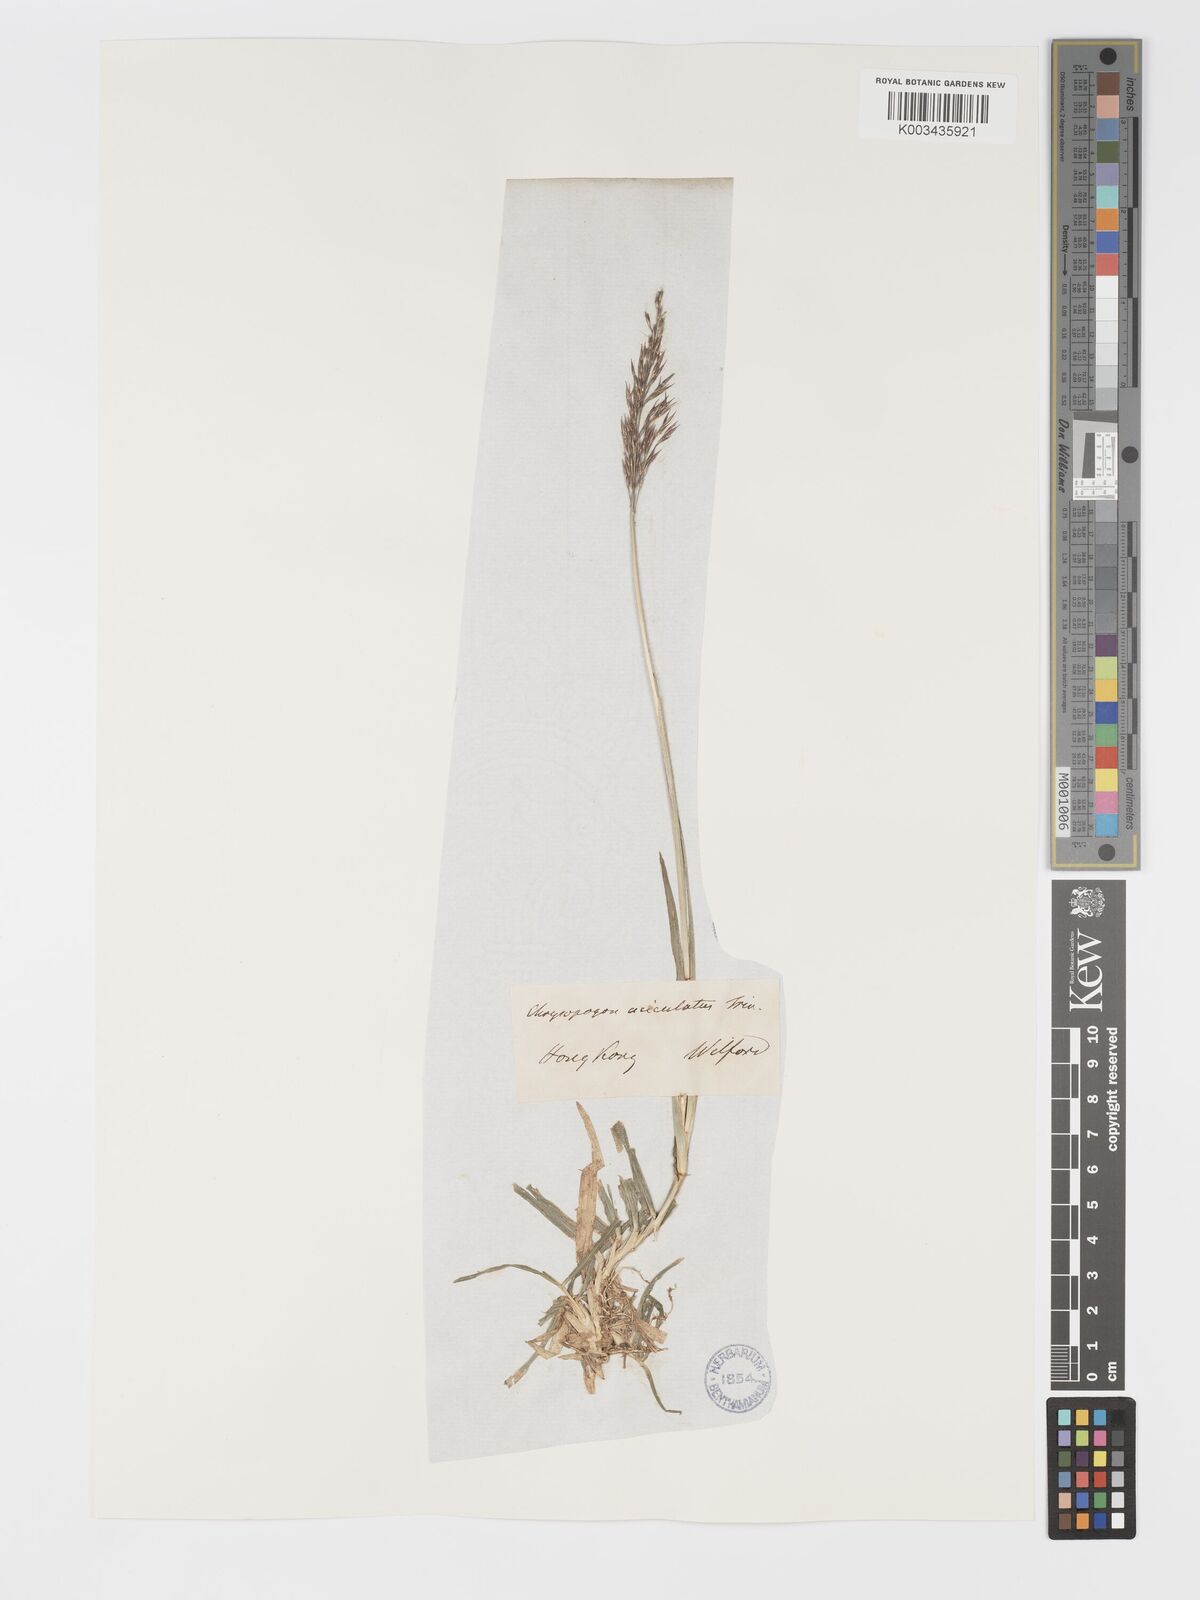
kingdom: Plantae
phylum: Tracheophyta
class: Liliopsida
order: Poales
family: Poaceae
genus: Chrysopogon
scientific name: Chrysopogon aciculatus
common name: Pilipiliula
